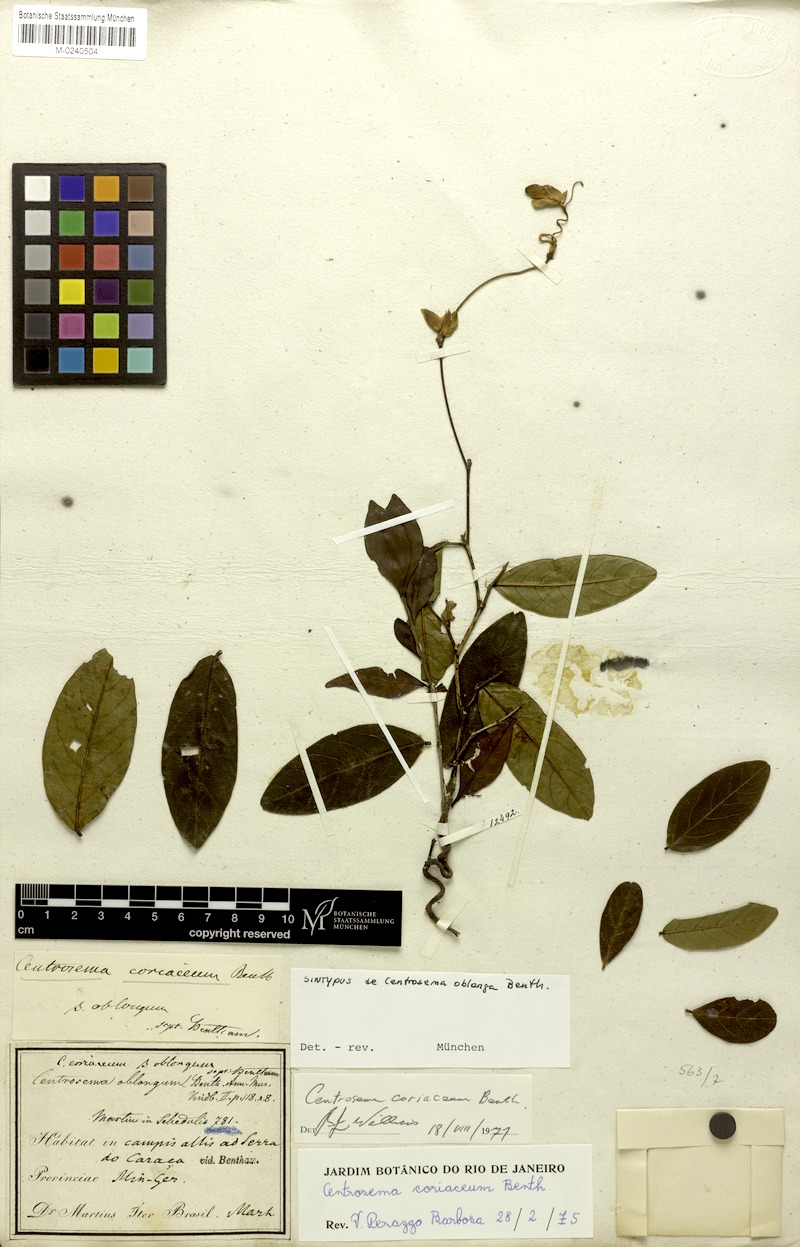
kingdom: Plantae
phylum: Tracheophyta
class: Magnoliopsida
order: Fabales
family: Fabaceae
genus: Centrosema
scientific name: Centrosema coriaceum
